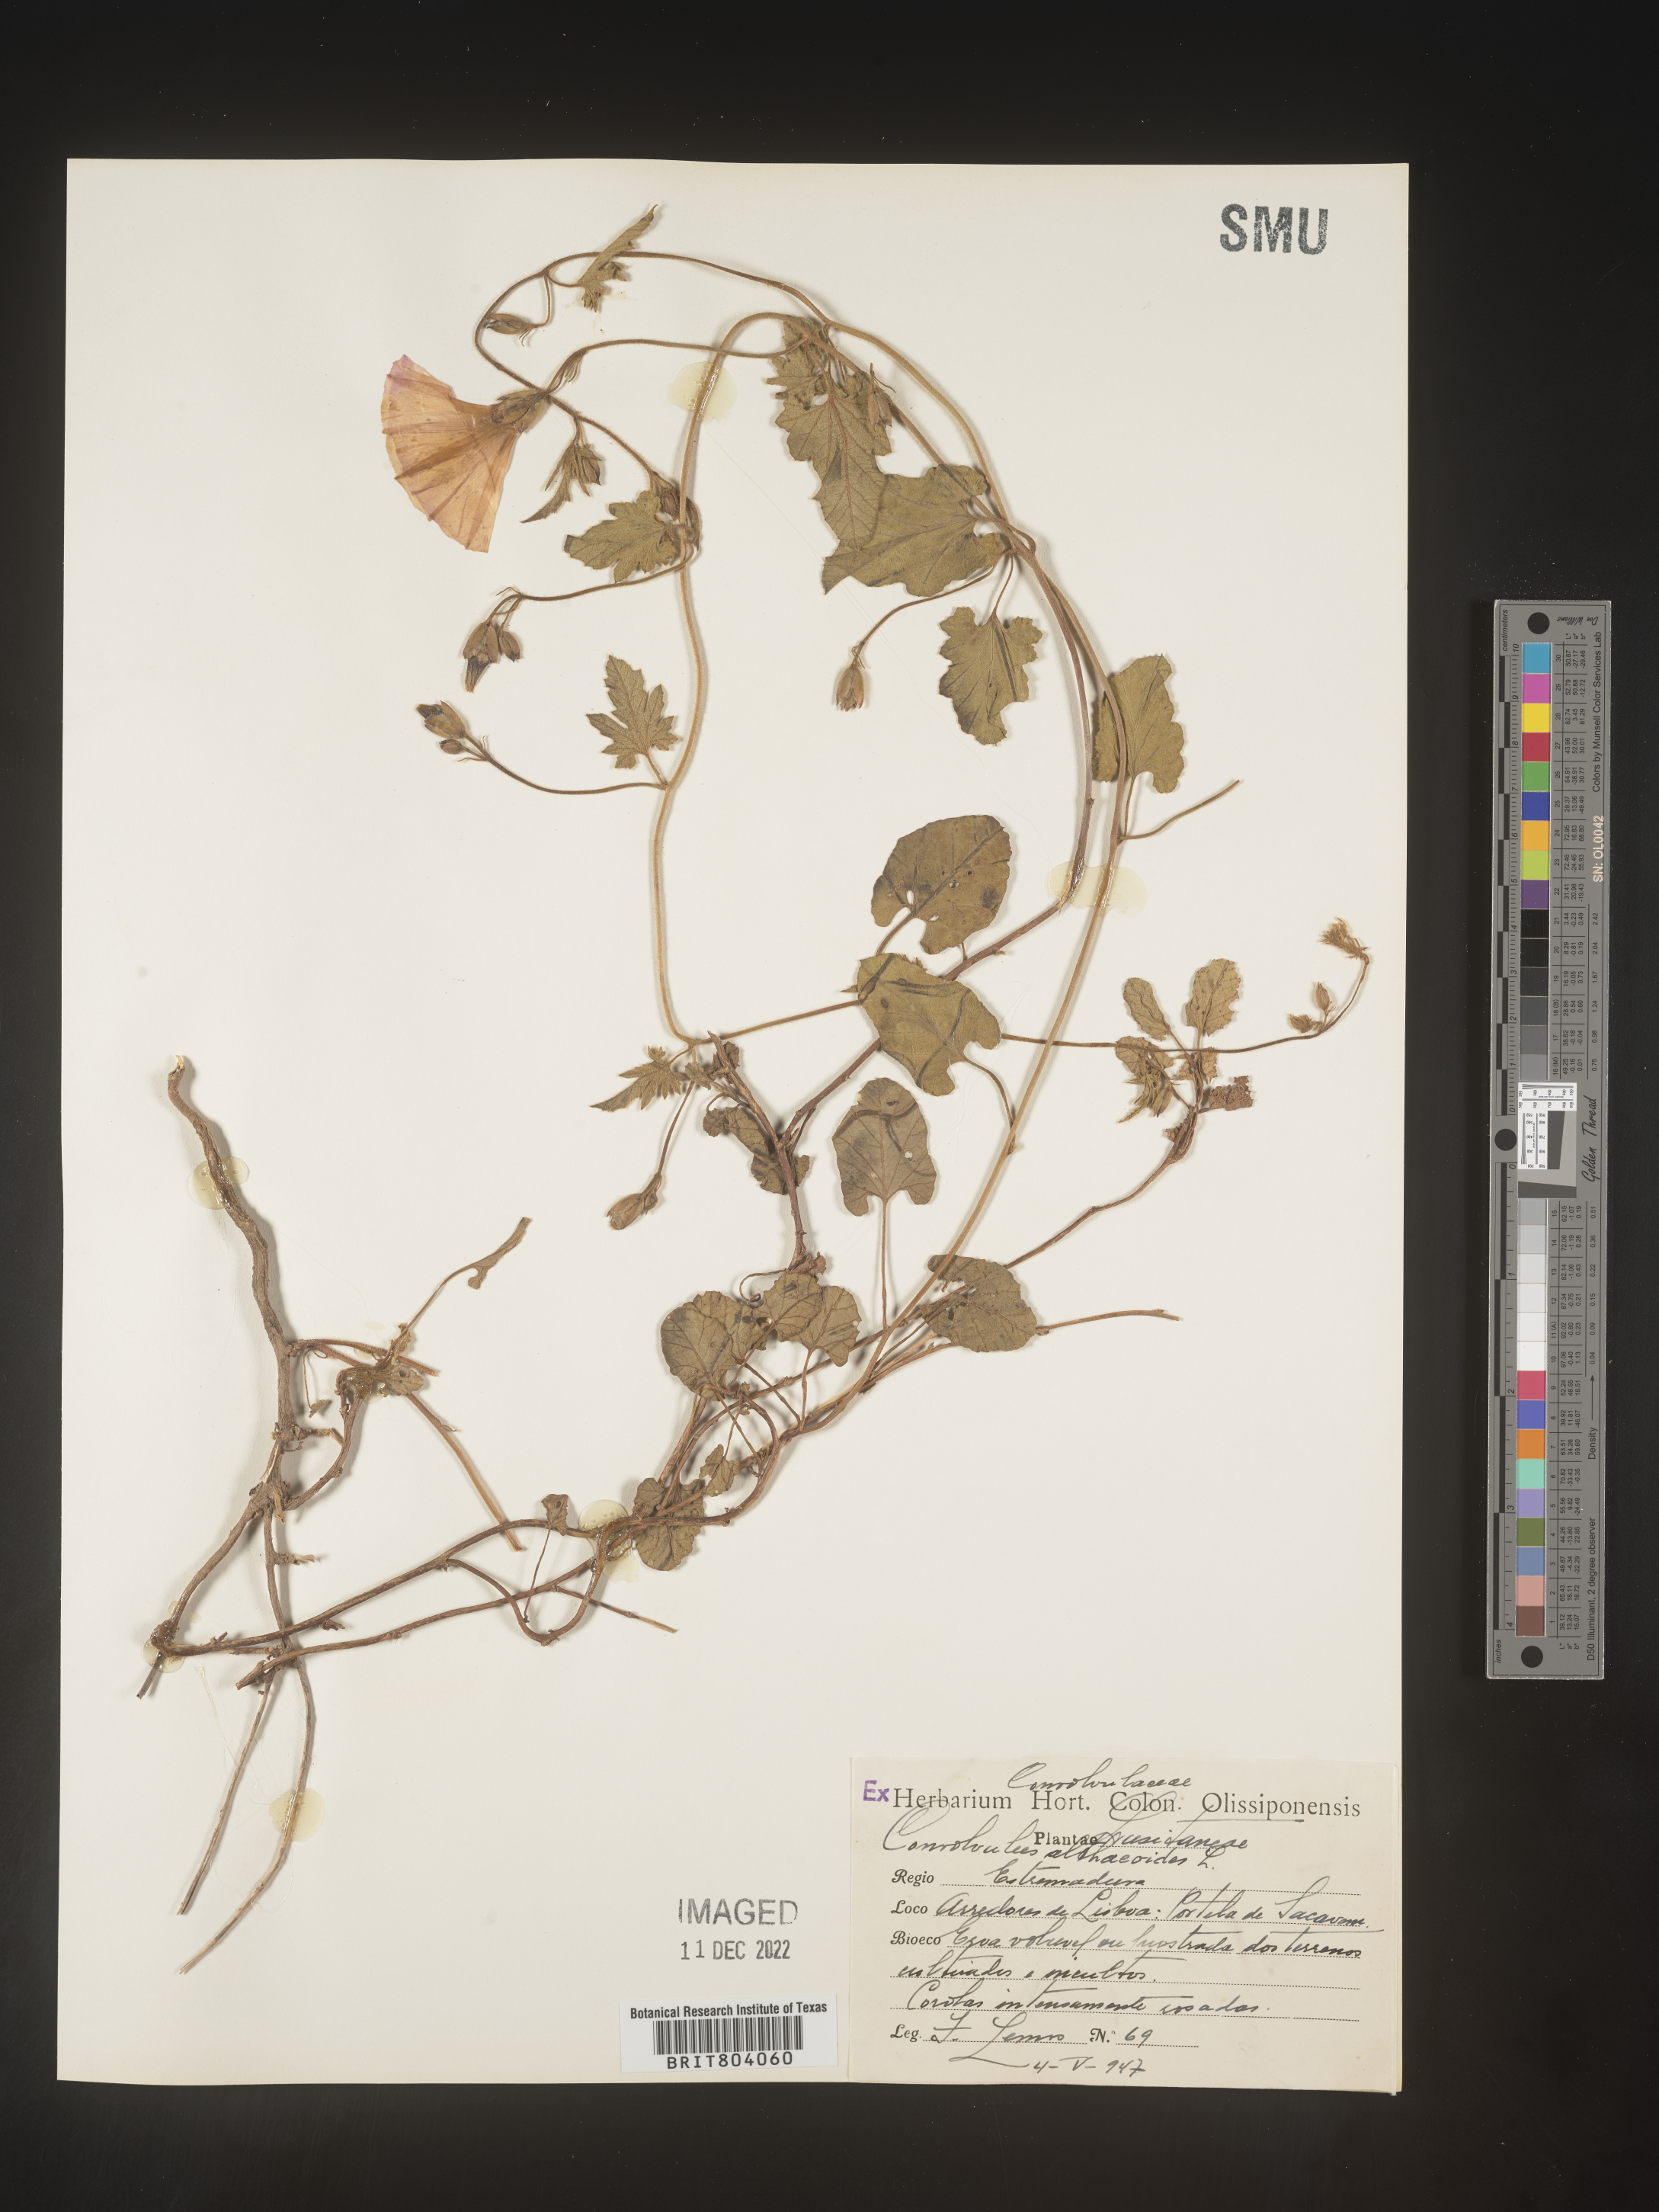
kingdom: Plantae
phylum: Tracheophyta
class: Magnoliopsida
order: Solanales
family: Convolvulaceae
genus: Convolvulus
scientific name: Convolvulus
